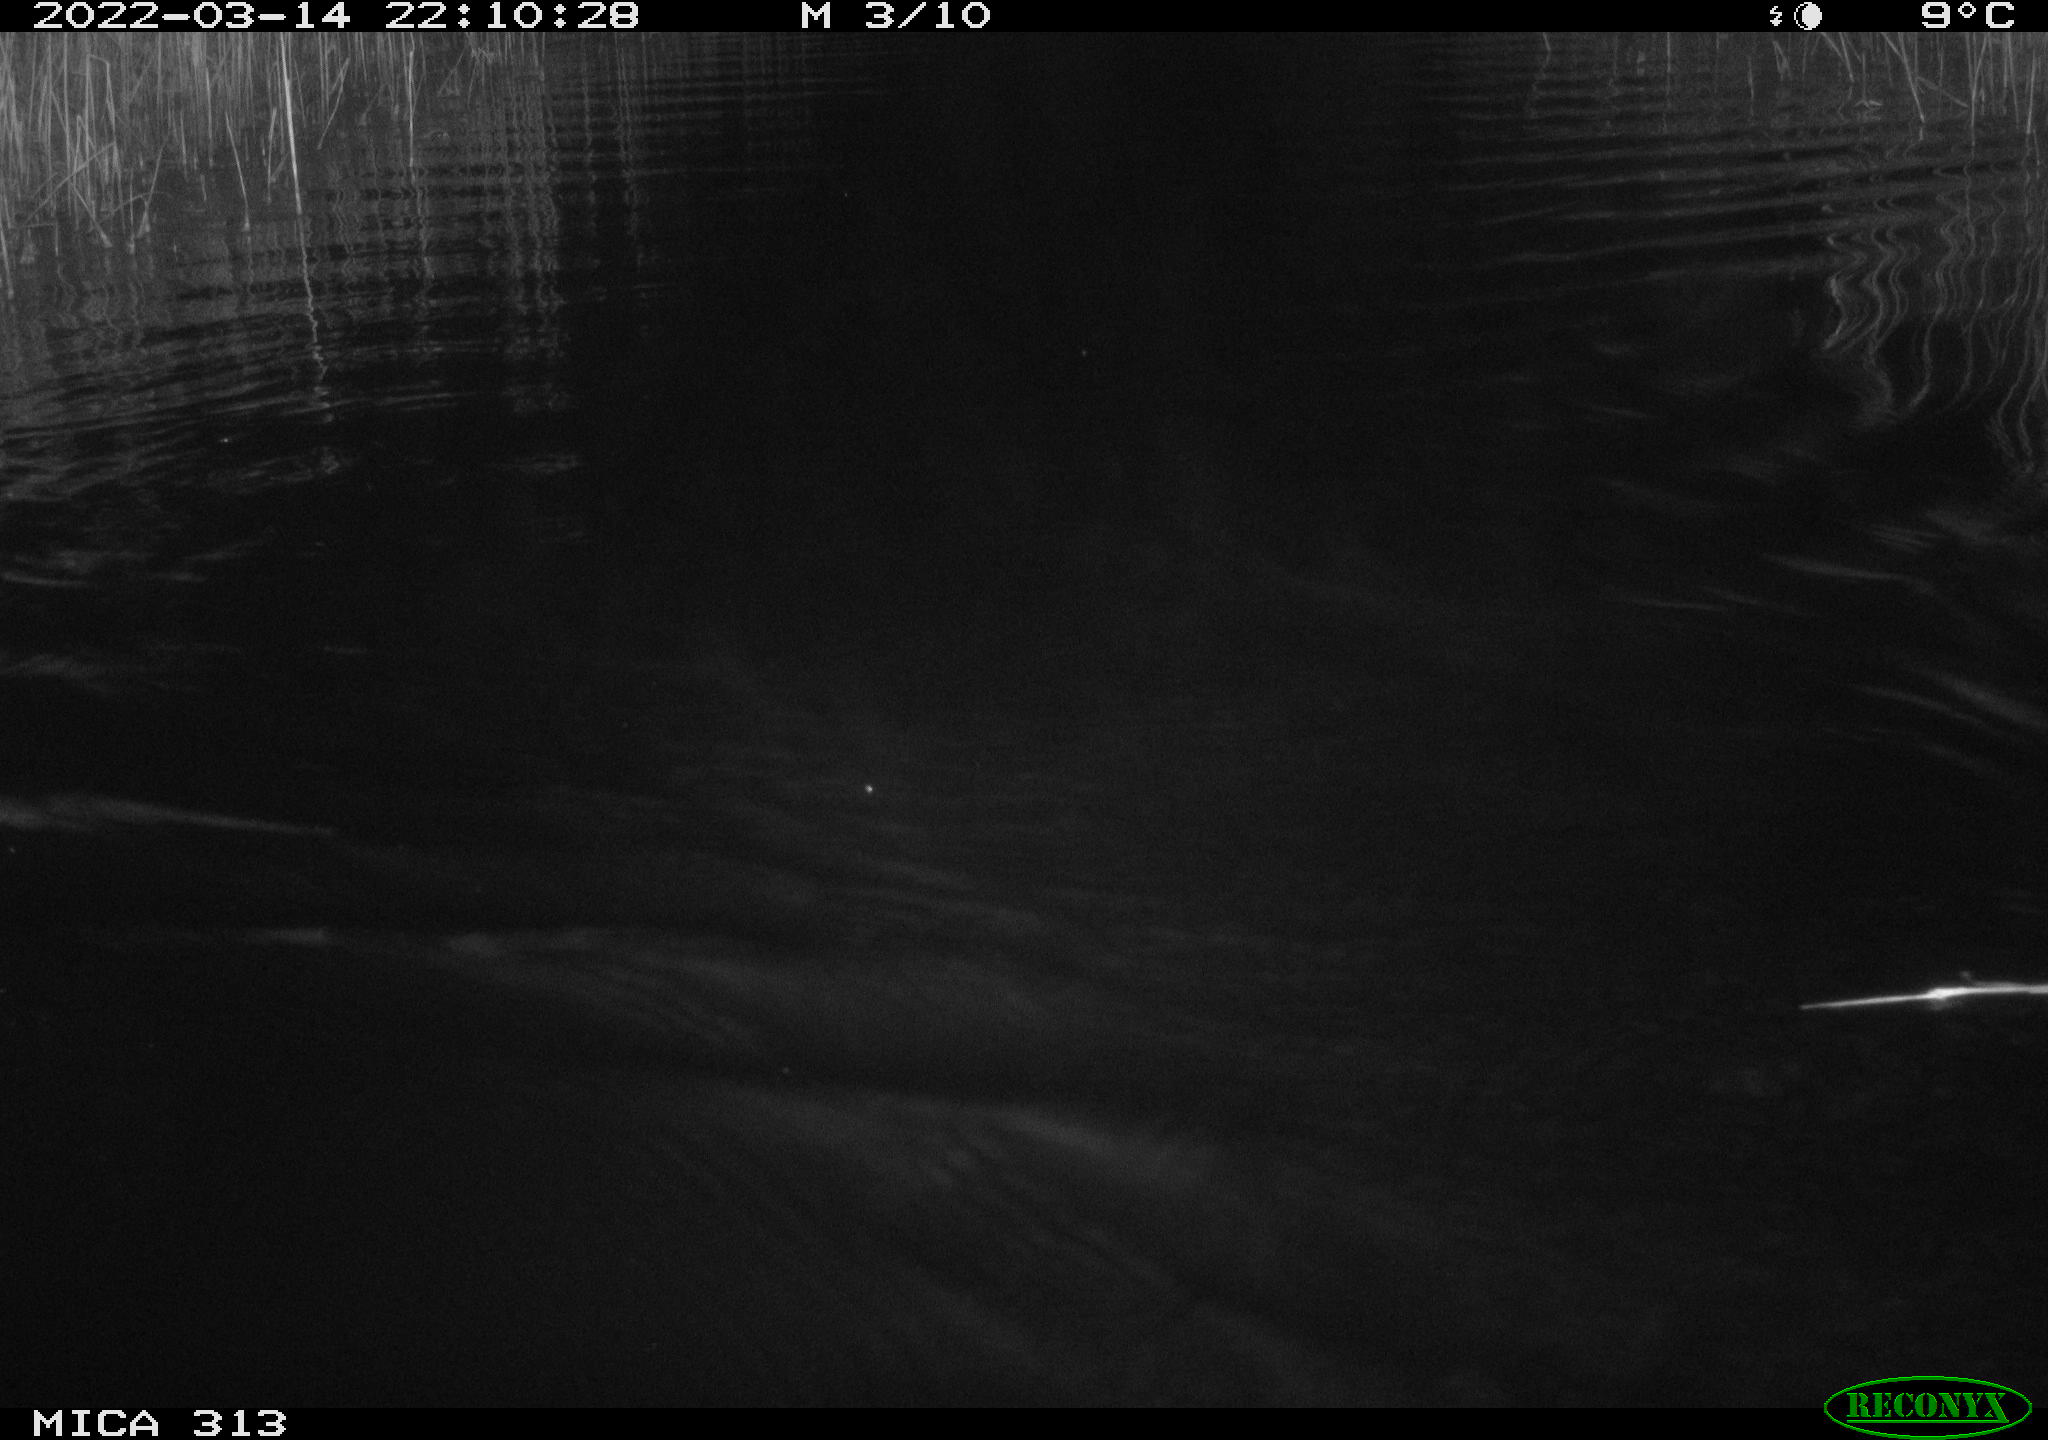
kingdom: Animalia
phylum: Chordata
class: Mammalia
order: Rodentia
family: Cricetidae
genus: Ondatra
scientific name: Ondatra zibethicus
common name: Muskrat
